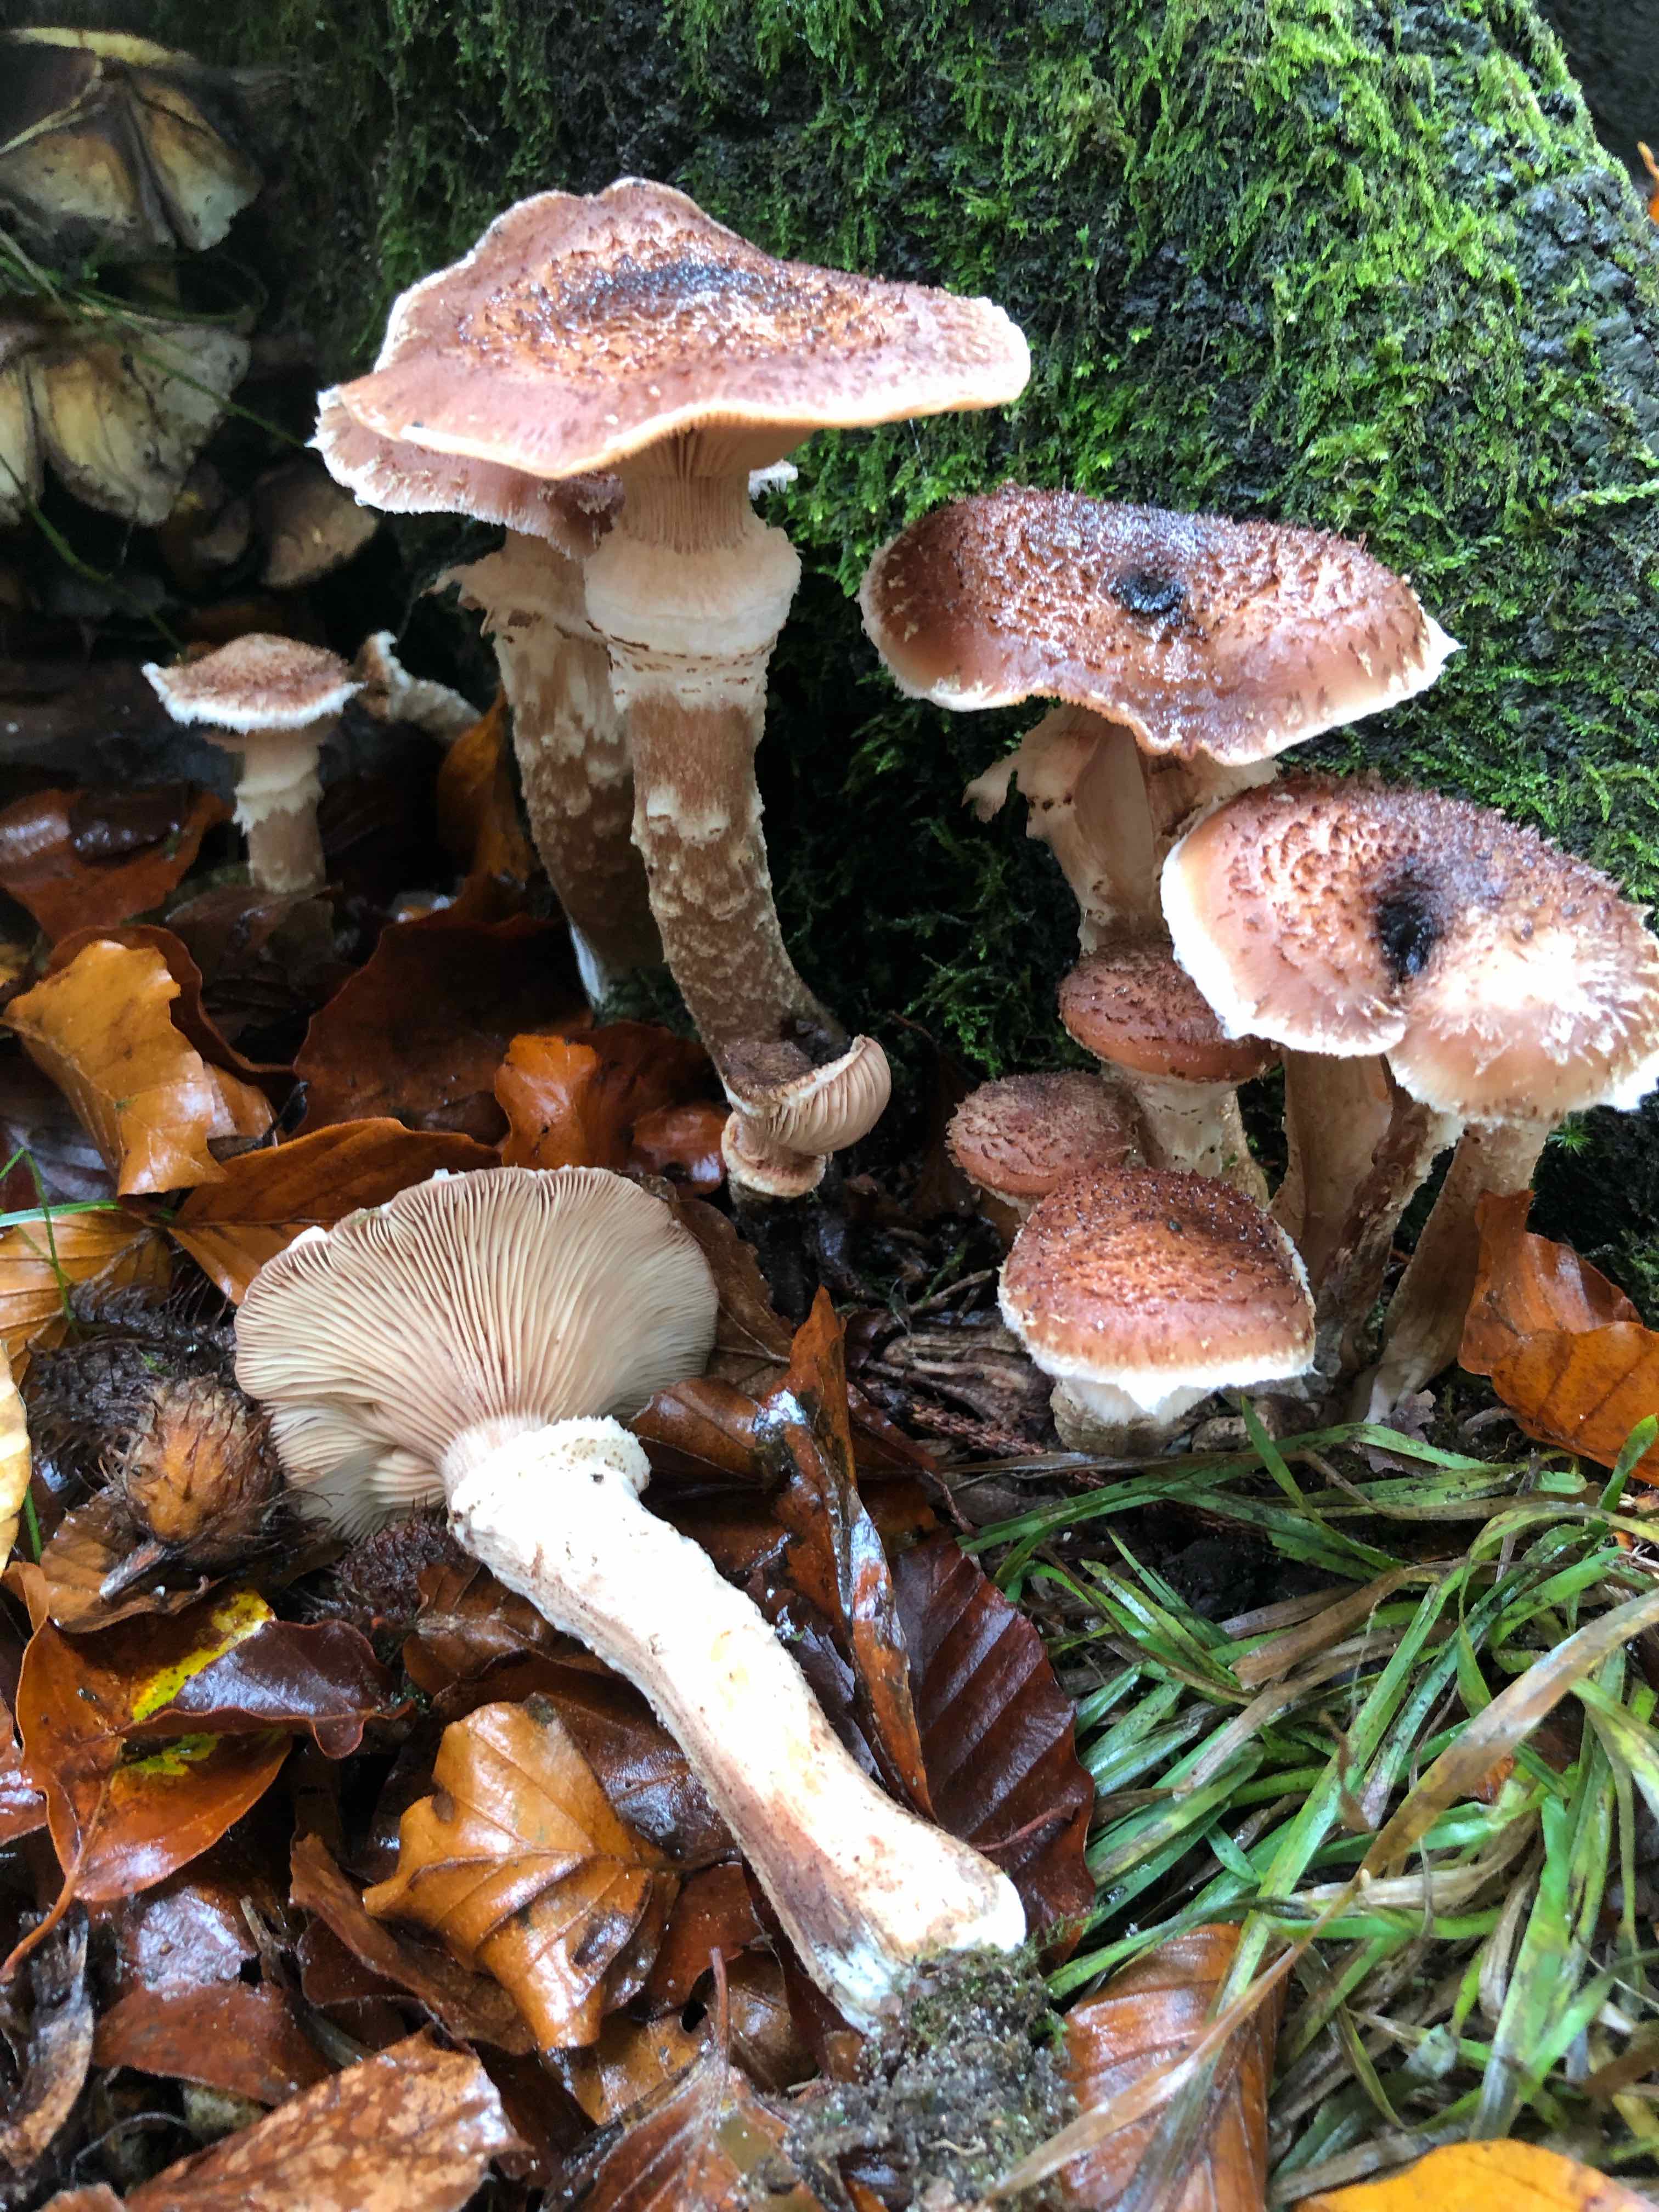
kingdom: Fungi
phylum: Basidiomycota
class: Agaricomycetes
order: Agaricales
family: Physalacriaceae
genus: Armillaria
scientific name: Armillaria ostoyae
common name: mørk honningsvamp
